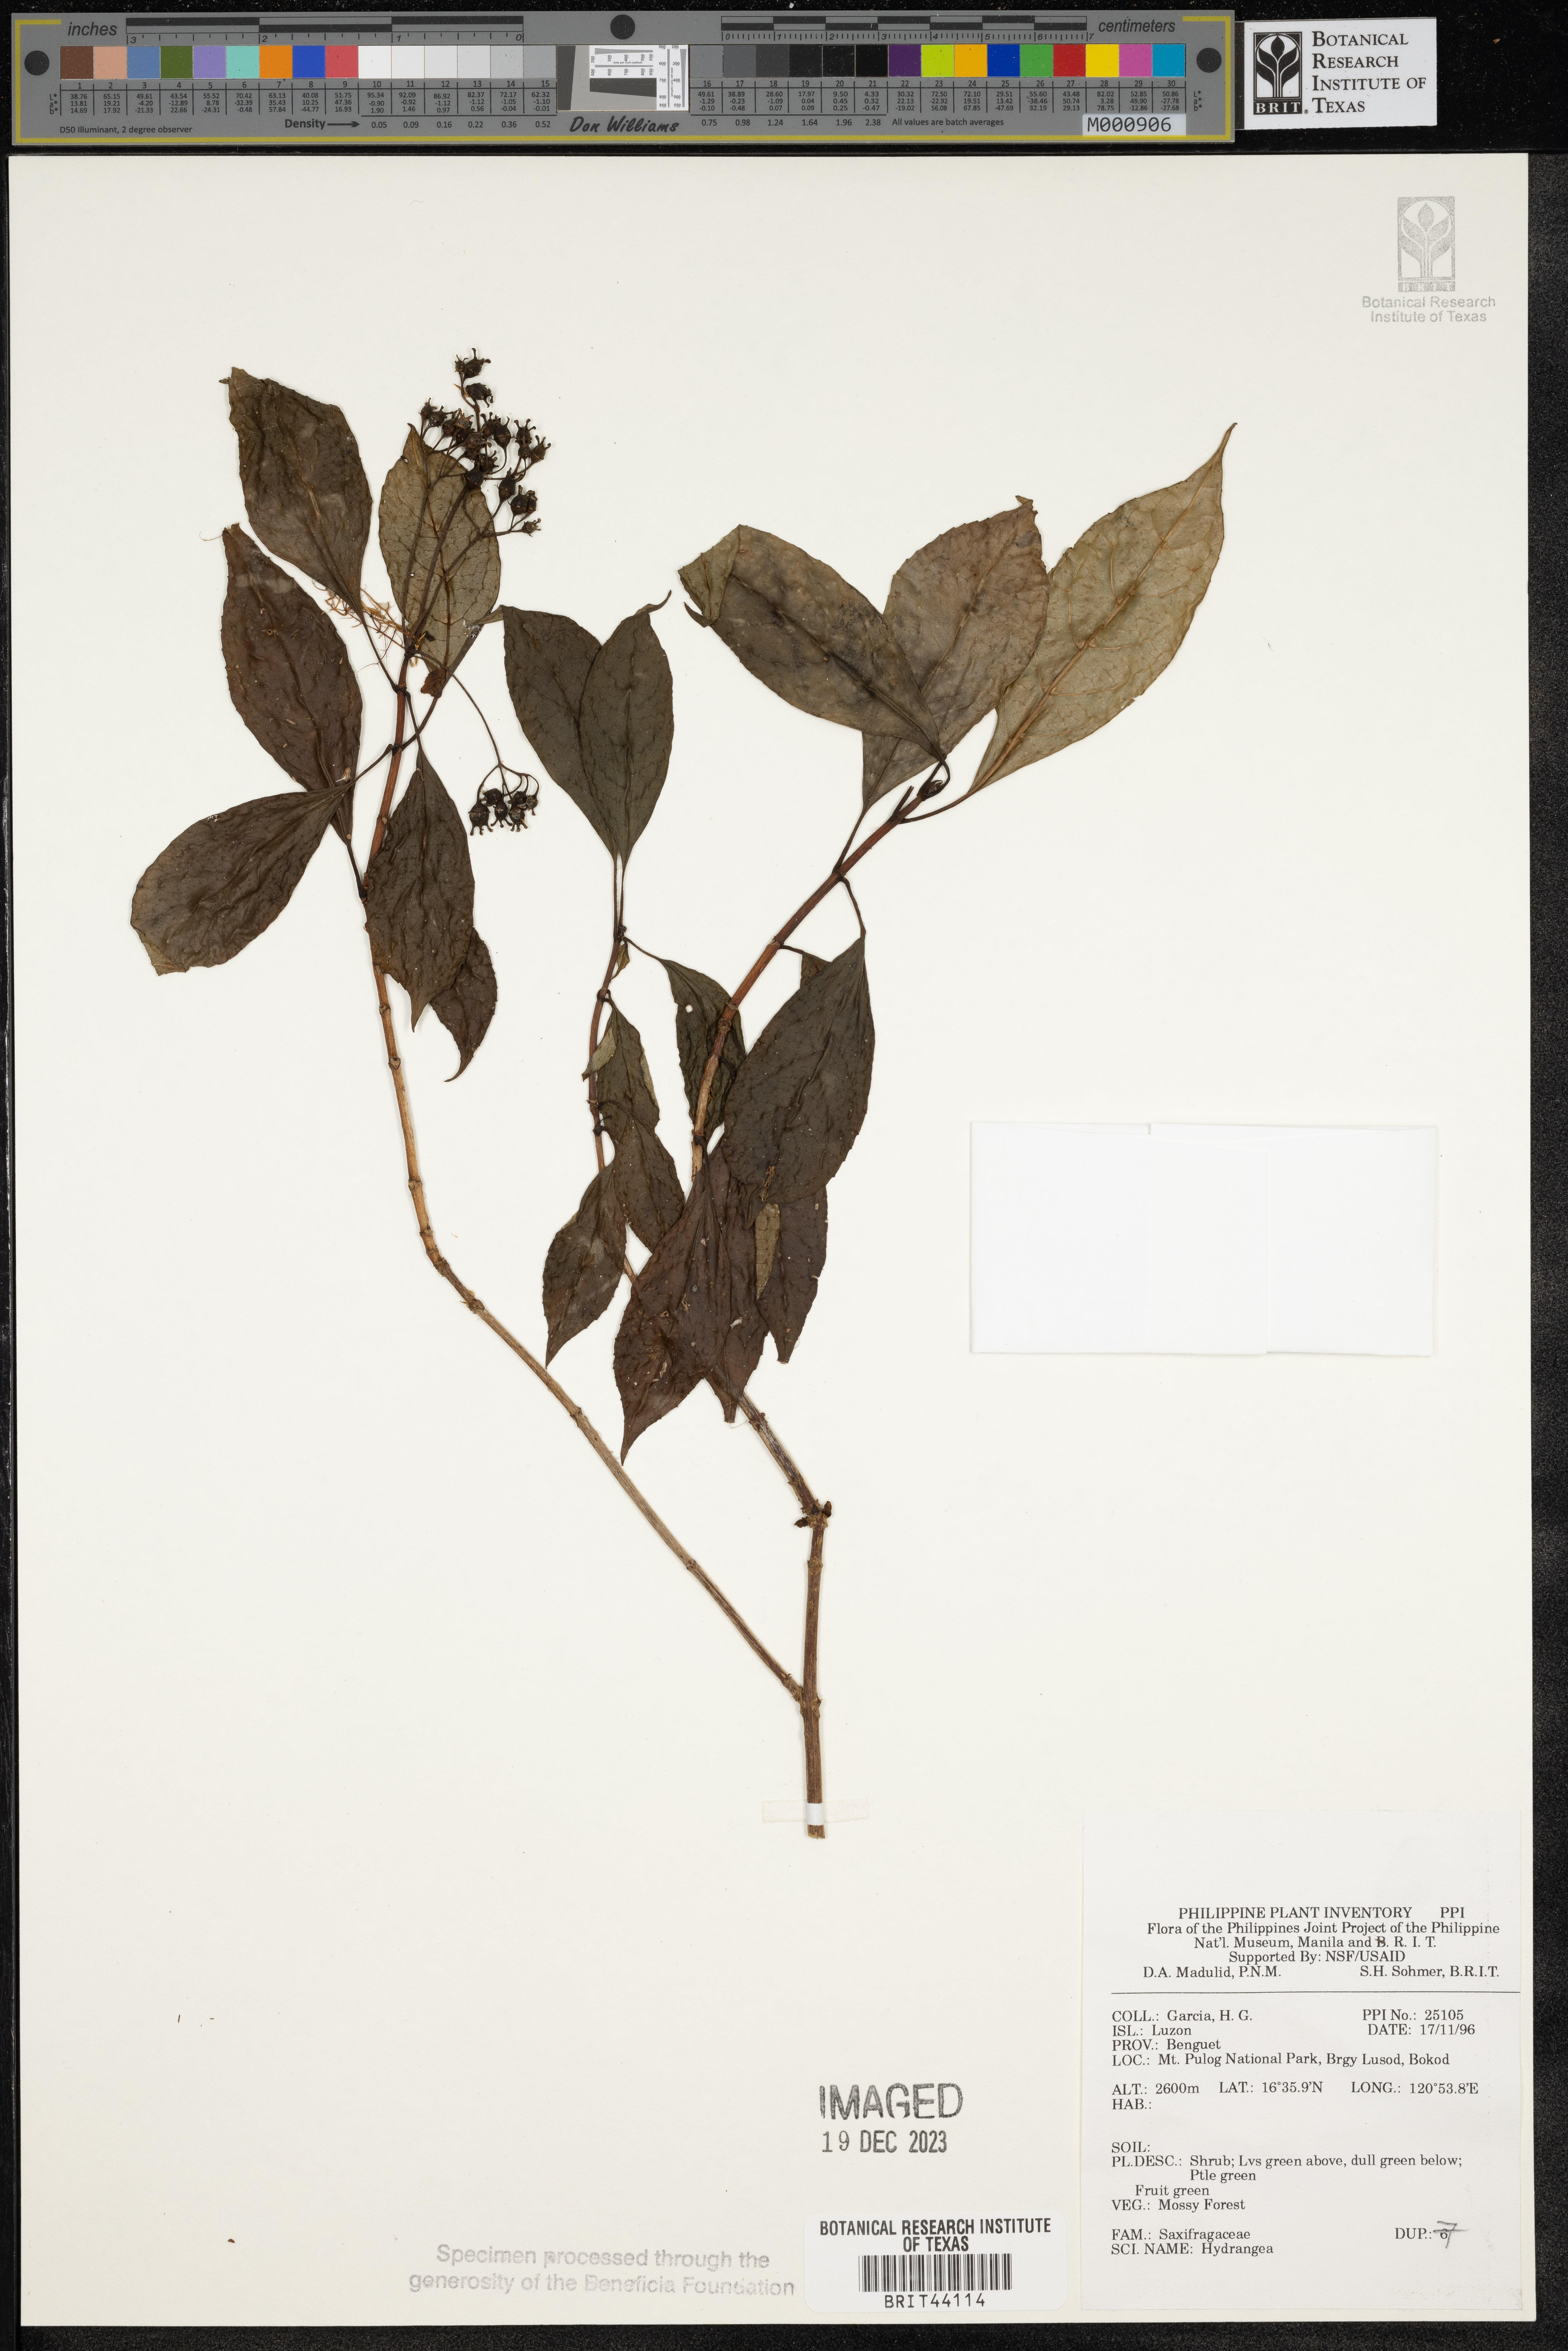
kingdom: Plantae
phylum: Tracheophyta
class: Magnoliopsida
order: Cornales
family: Hydrangeaceae
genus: Hydrangea
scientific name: Hydrangea
